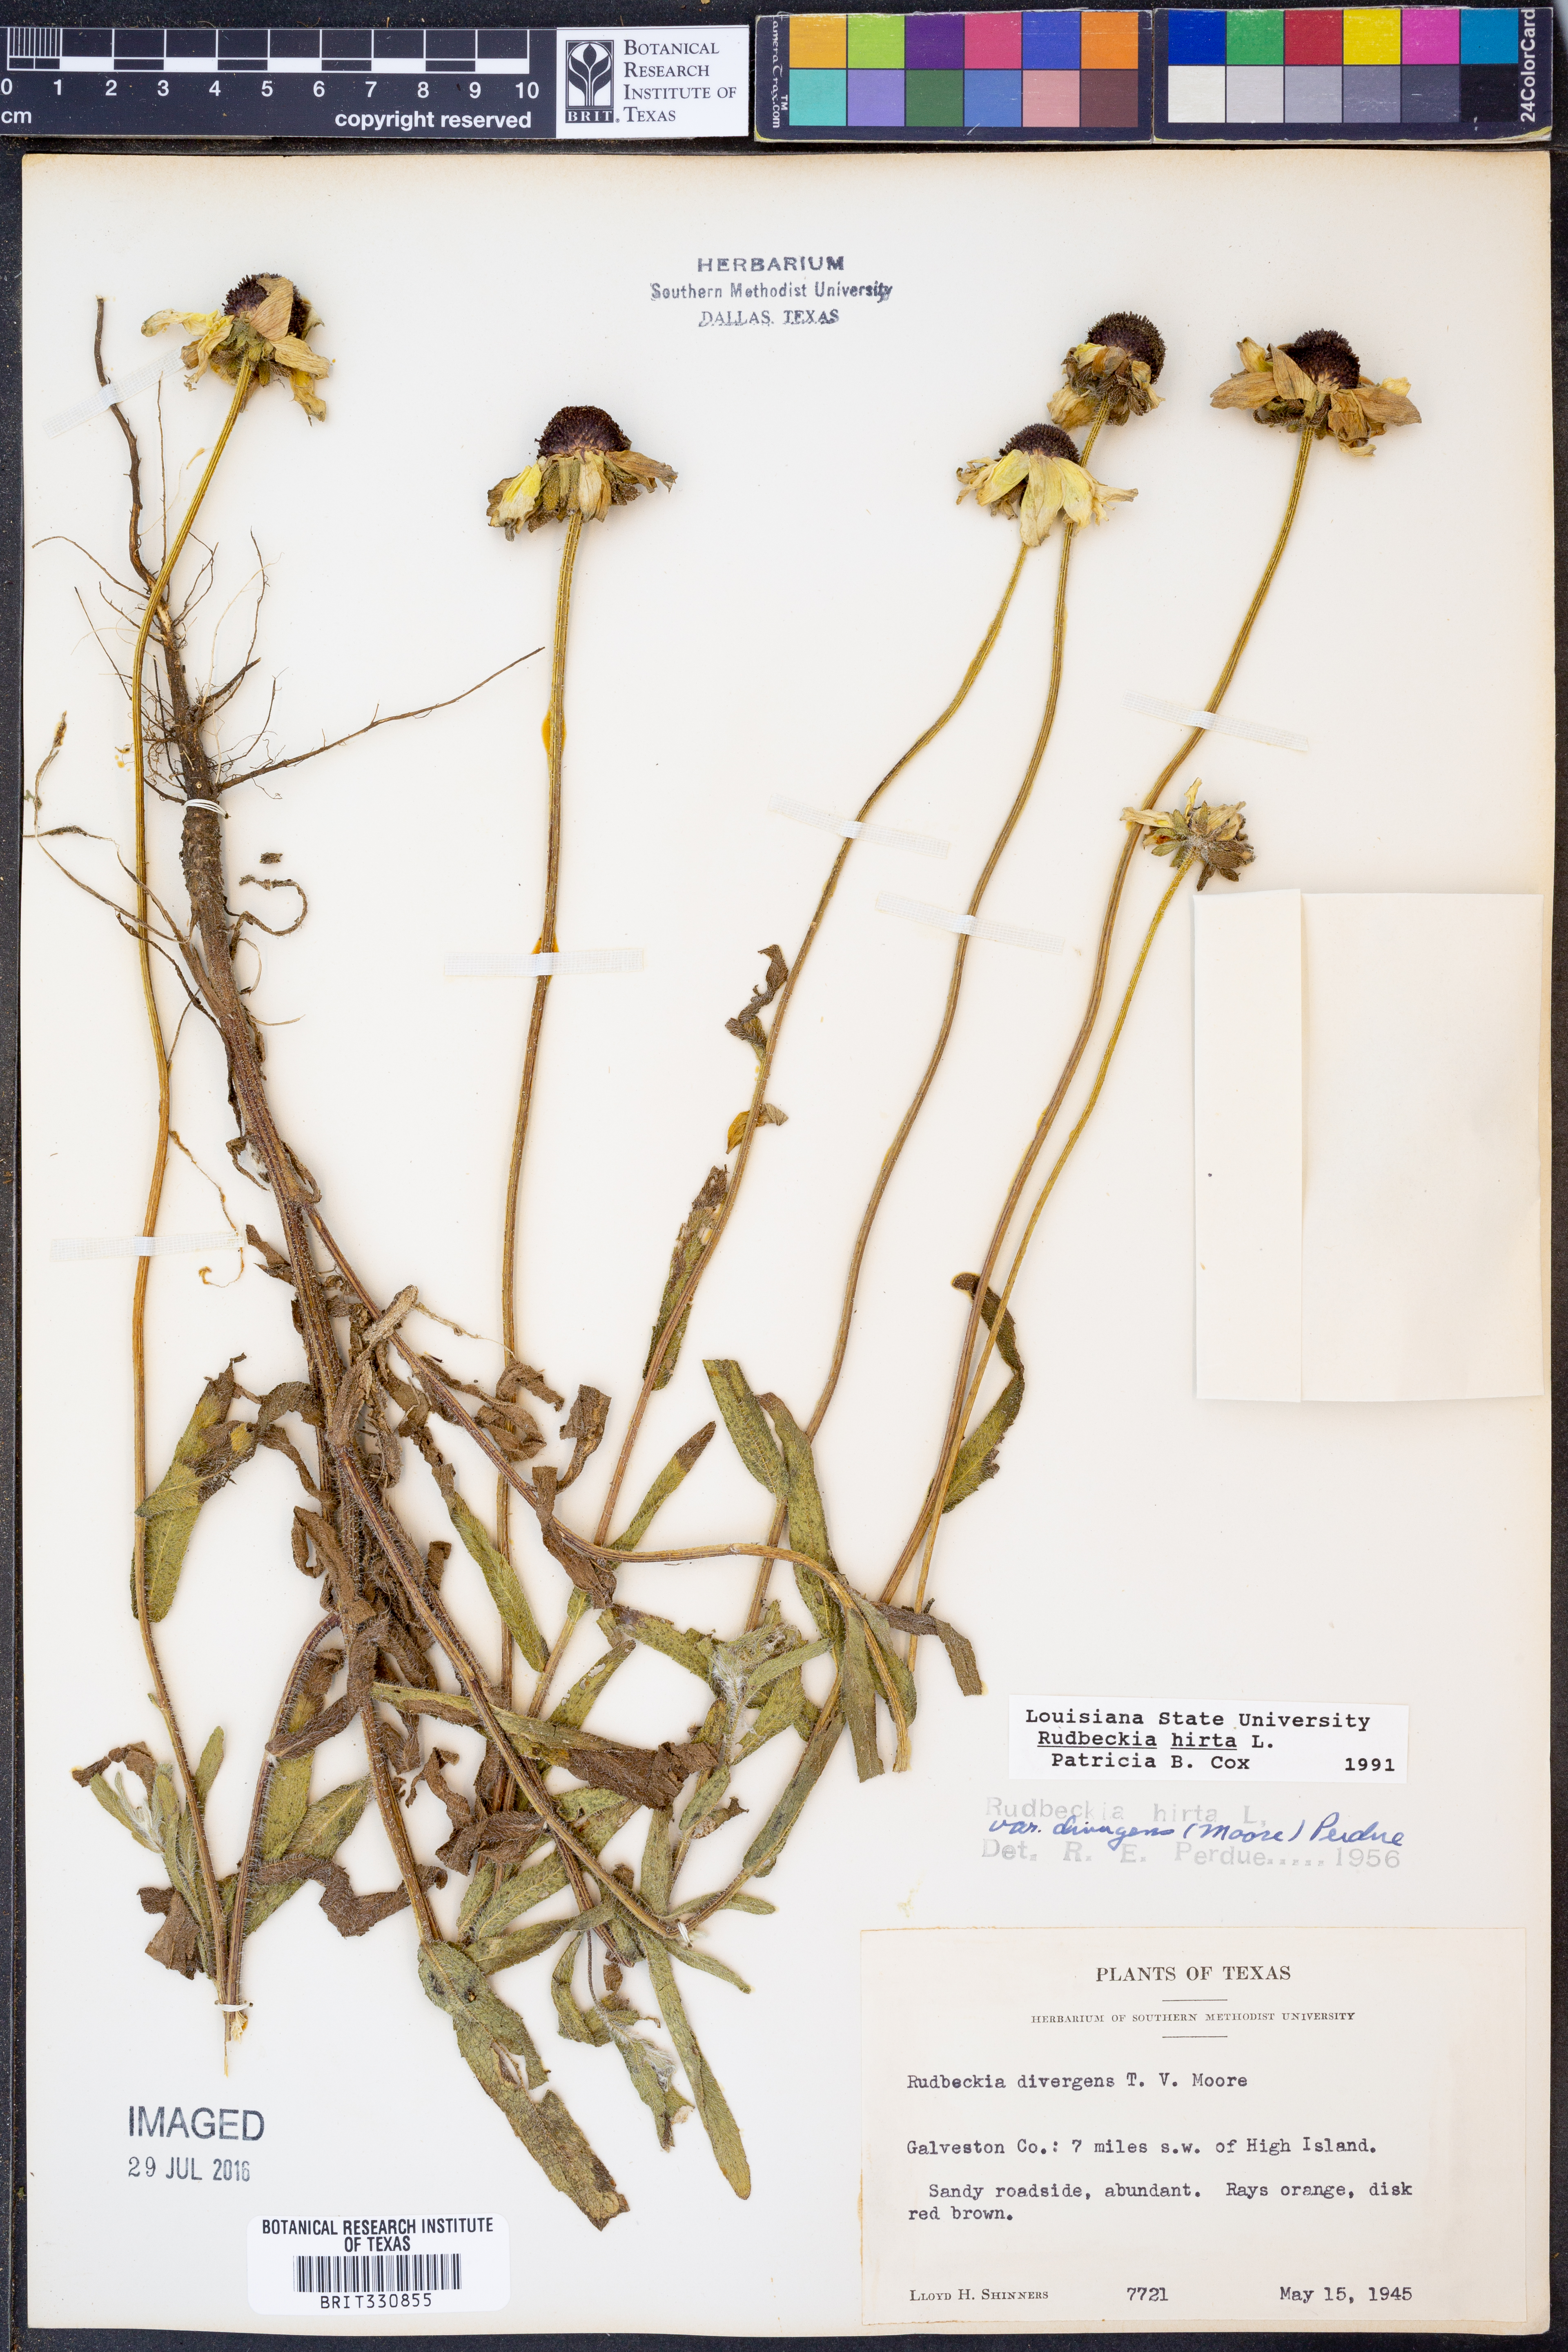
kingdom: Plantae
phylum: Tracheophyta
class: Magnoliopsida
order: Asterales
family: Asteraceae
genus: Rudbeckia
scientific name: Rudbeckia hirta
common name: Black-eyed-susan
